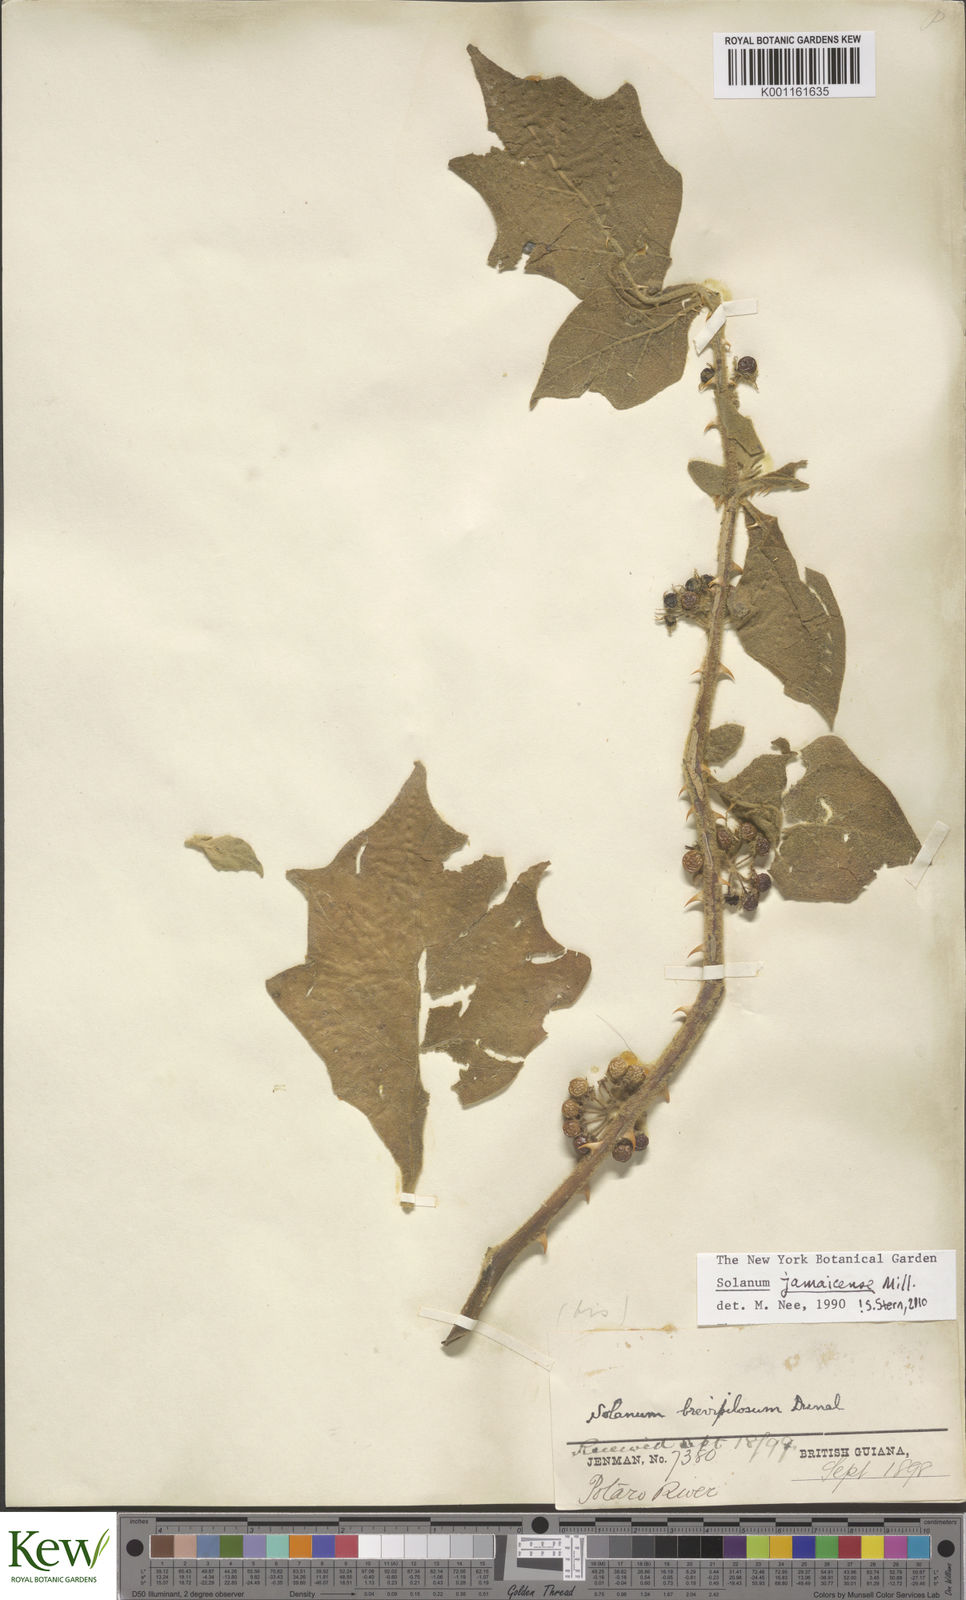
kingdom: Plantae
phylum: Tracheophyta
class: Magnoliopsida
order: Solanales
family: Solanaceae
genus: Solanum
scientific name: Solanum jamaicense
